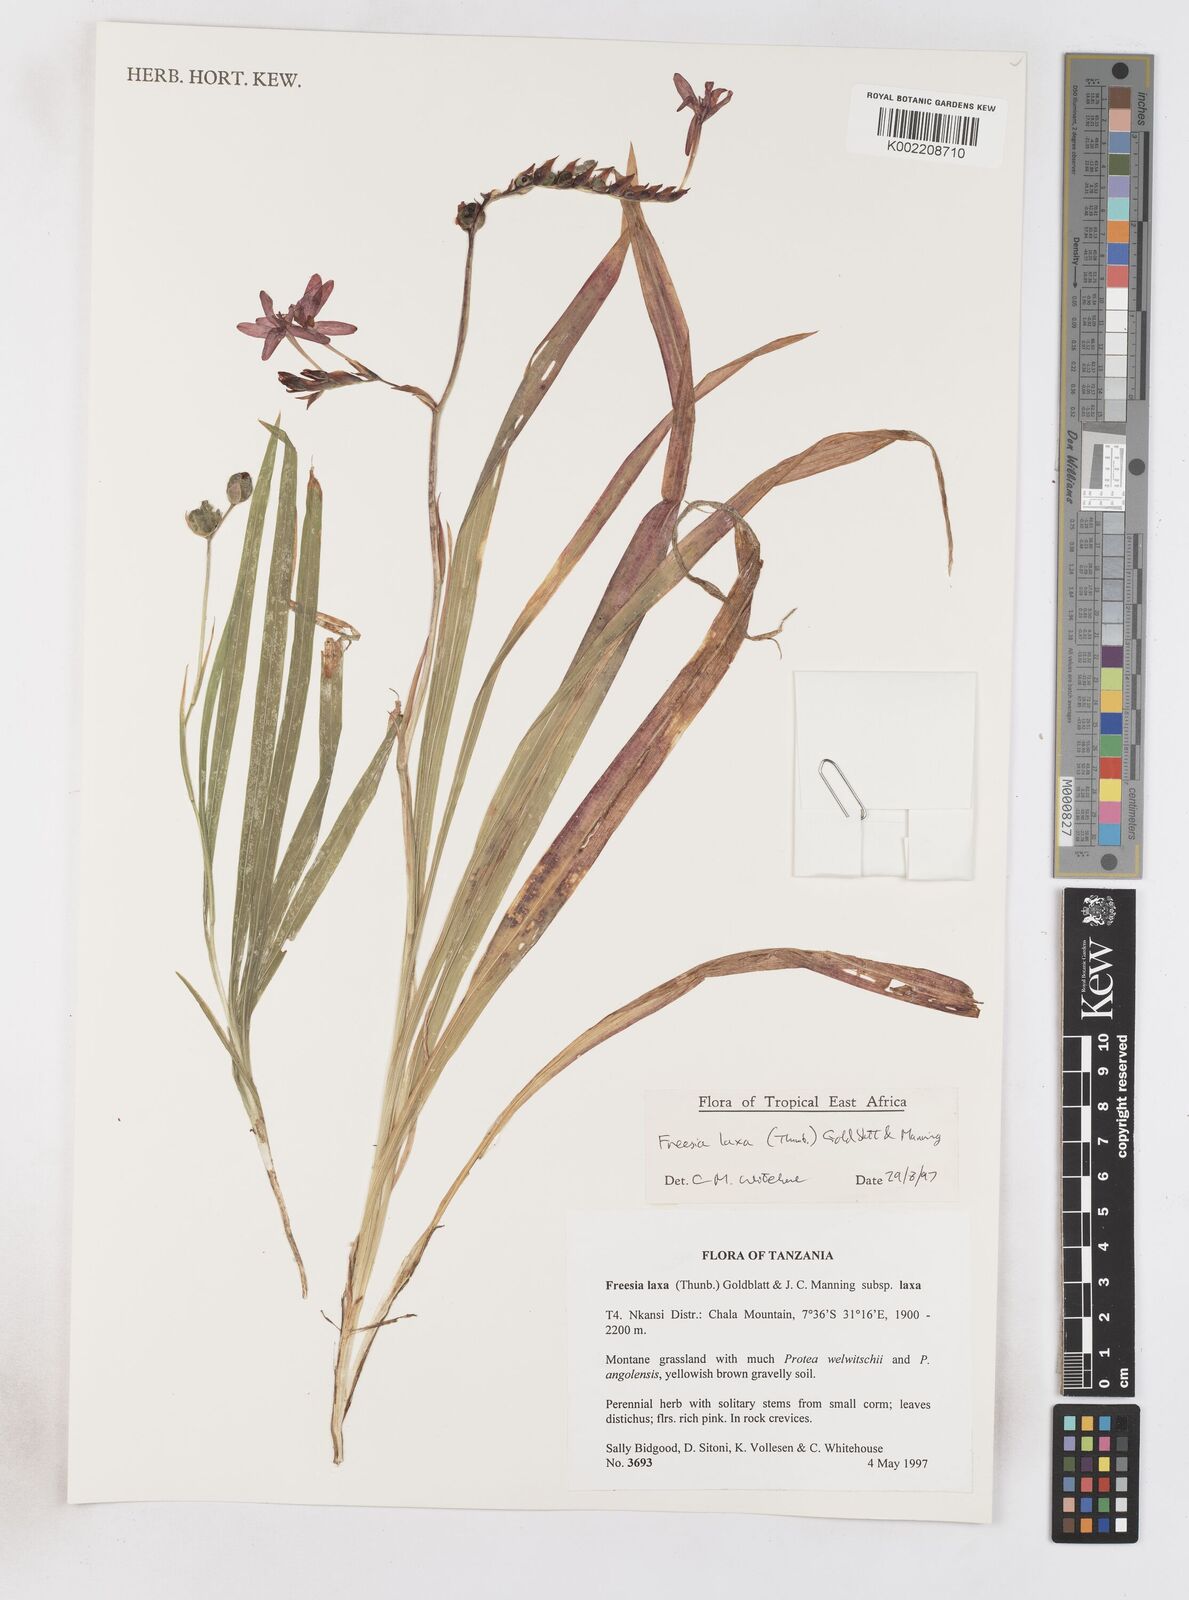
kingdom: Plantae
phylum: Tracheophyta
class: Liliopsida
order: Asparagales
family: Iridaceae
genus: Freesia
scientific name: Freesia laxa
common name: False freesia
